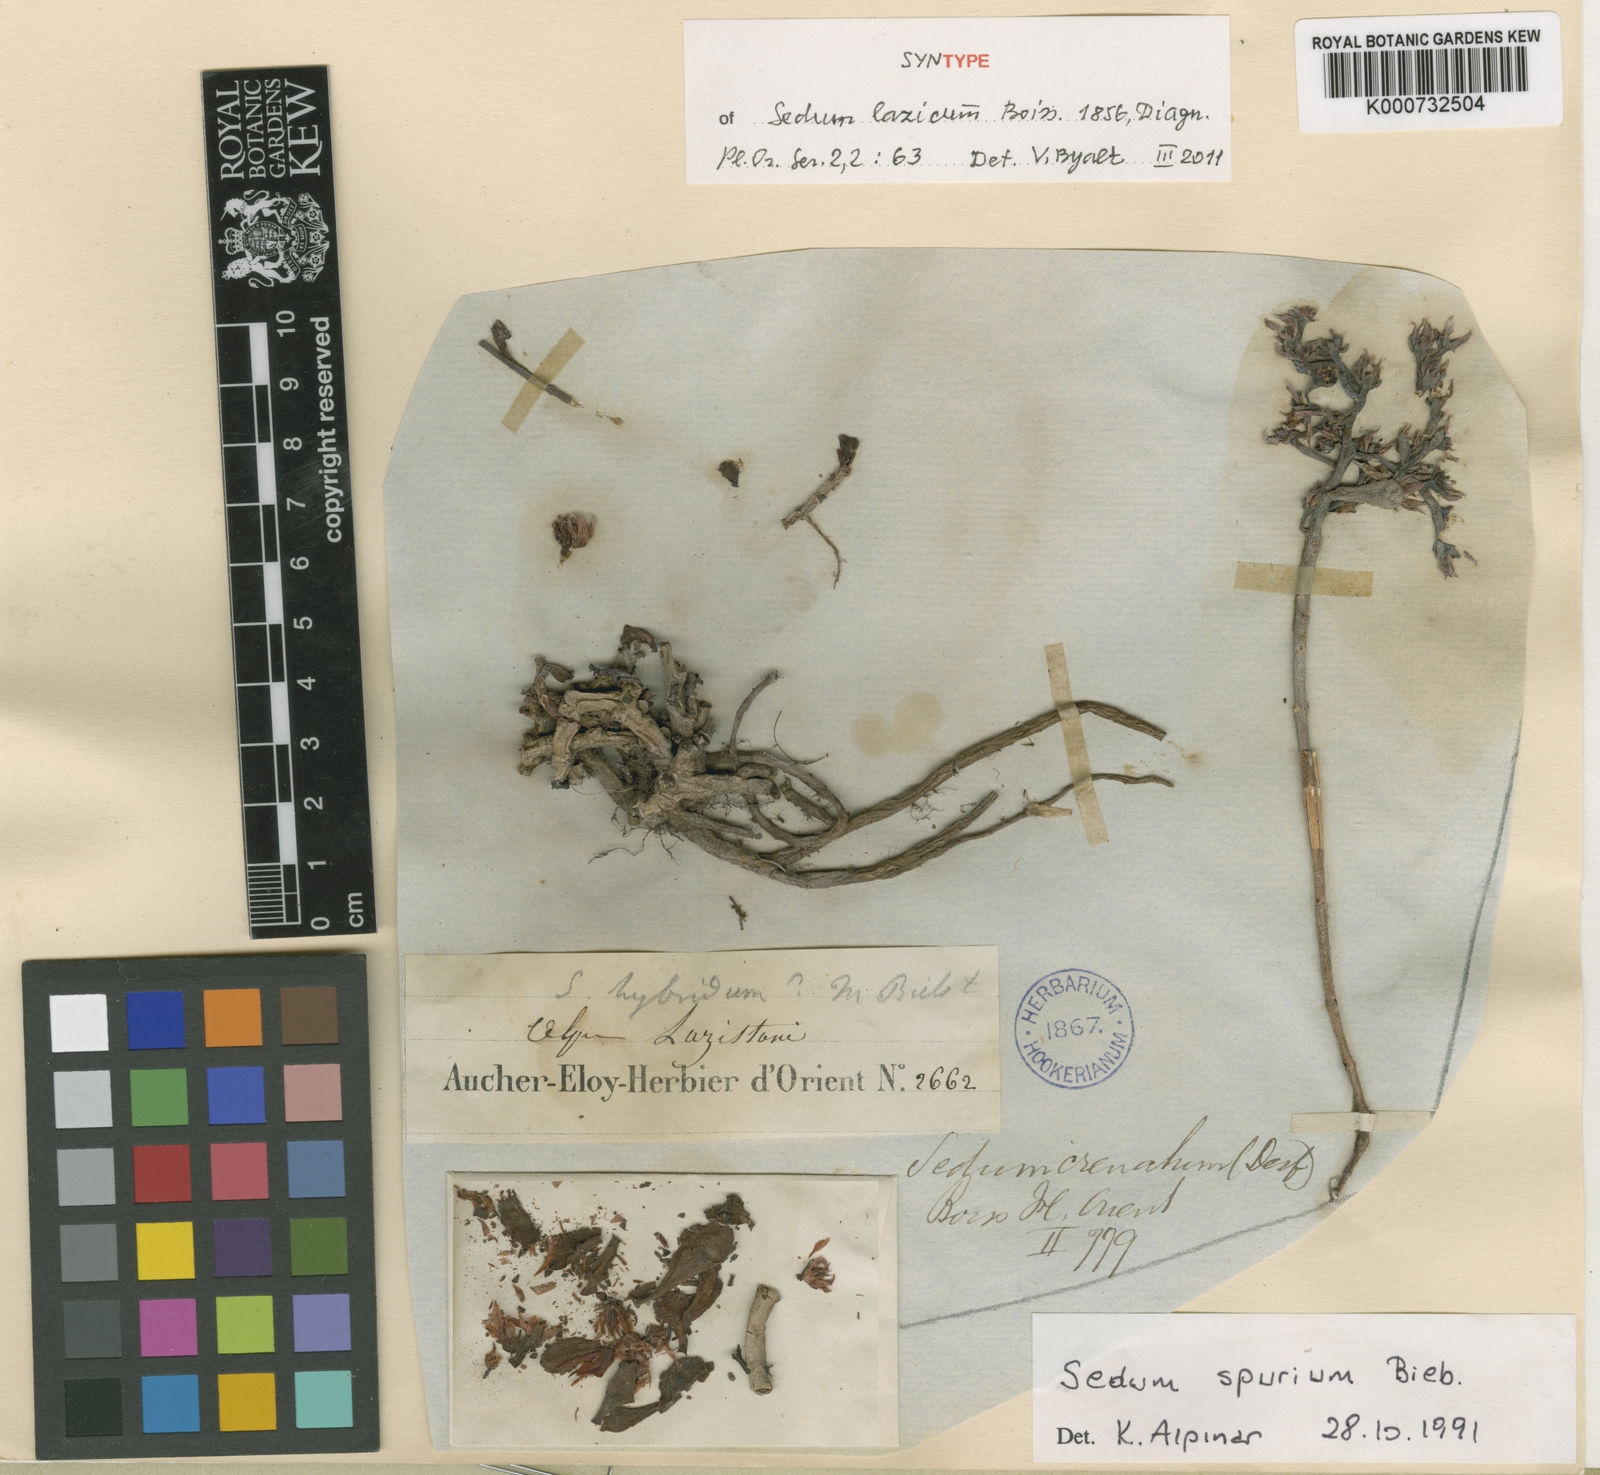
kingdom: Plantae
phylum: Tracheophyta
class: Magnoliopsida
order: Saxifragales
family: Crassulaceae
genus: Phedimus
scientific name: Phedimus spurius
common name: Caucasian stonecrop
